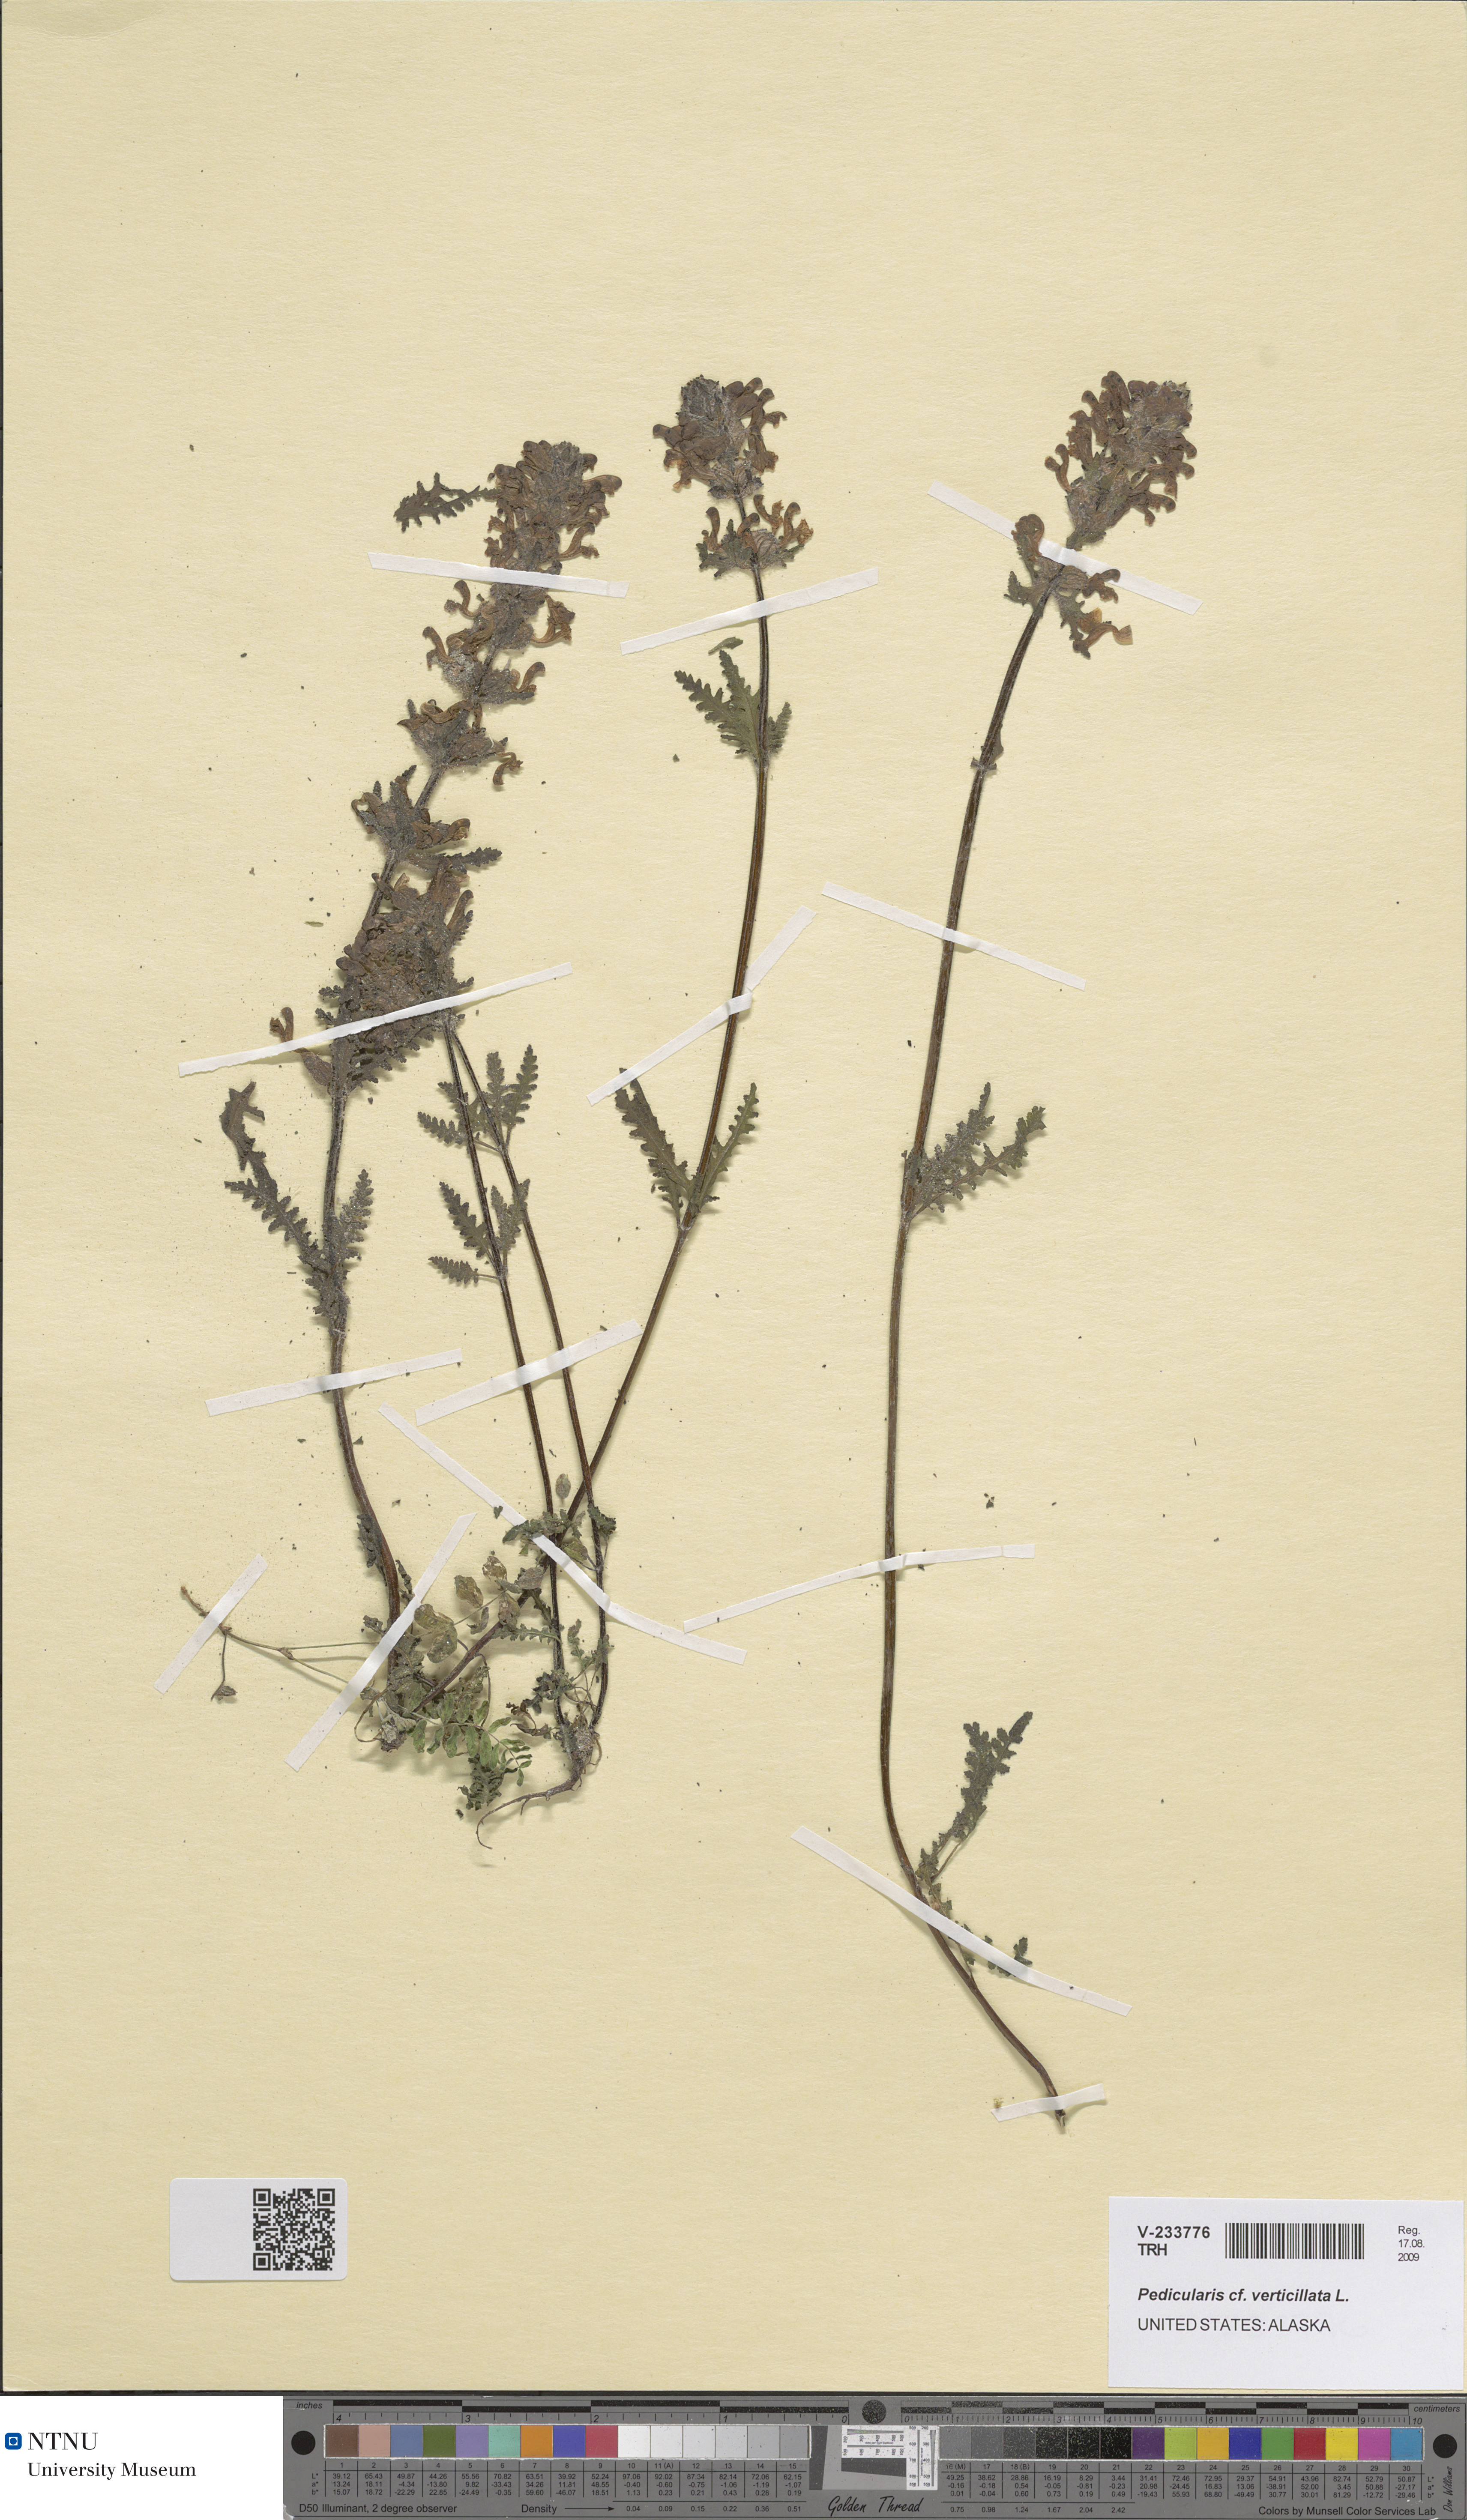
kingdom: Plantae
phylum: Tracheophyta
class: Magnoliopsida
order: Lamiales
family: Orobanchaceae
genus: Pedicularis
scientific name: Pedicularis verticillata
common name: Whorled lousewort
